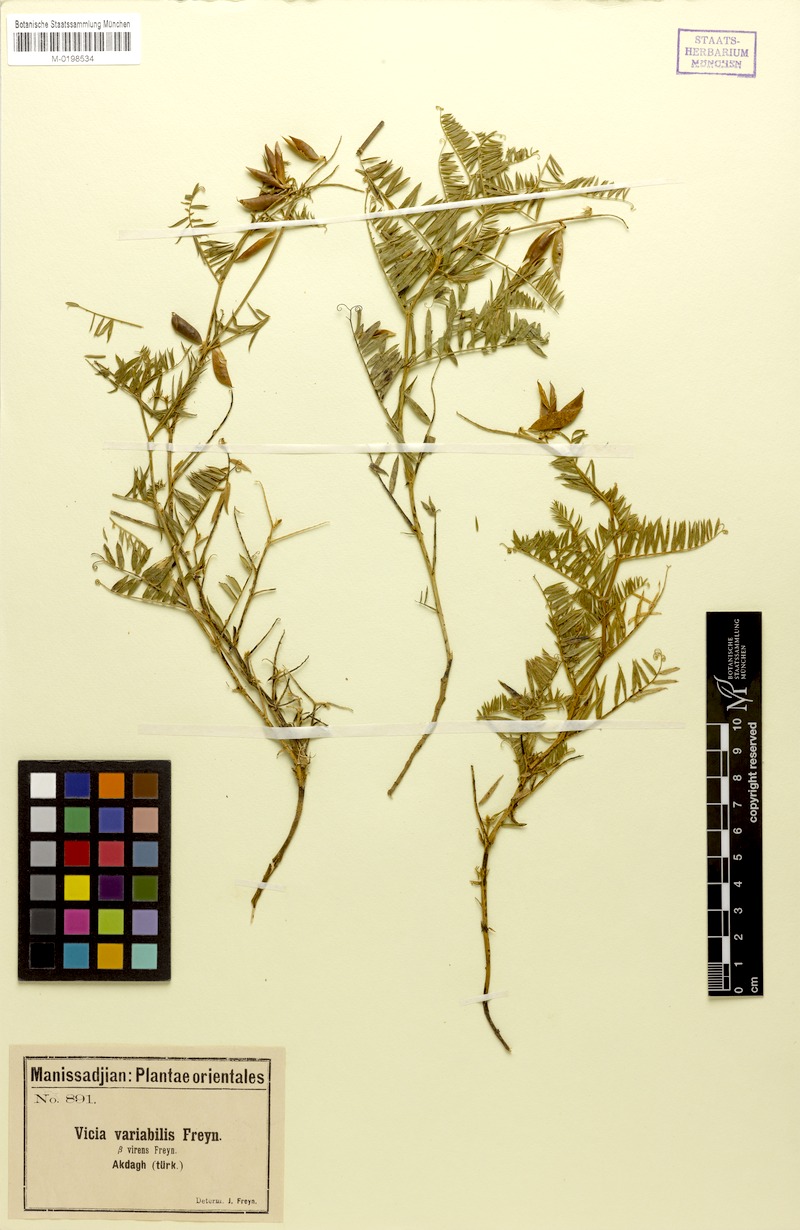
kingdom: Plantae
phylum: Tracheophyta
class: Magnoliopsida
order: Fabales
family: Fabaceae
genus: Vicia
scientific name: Vicia tenuifolia
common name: Fine-leaved vetch
